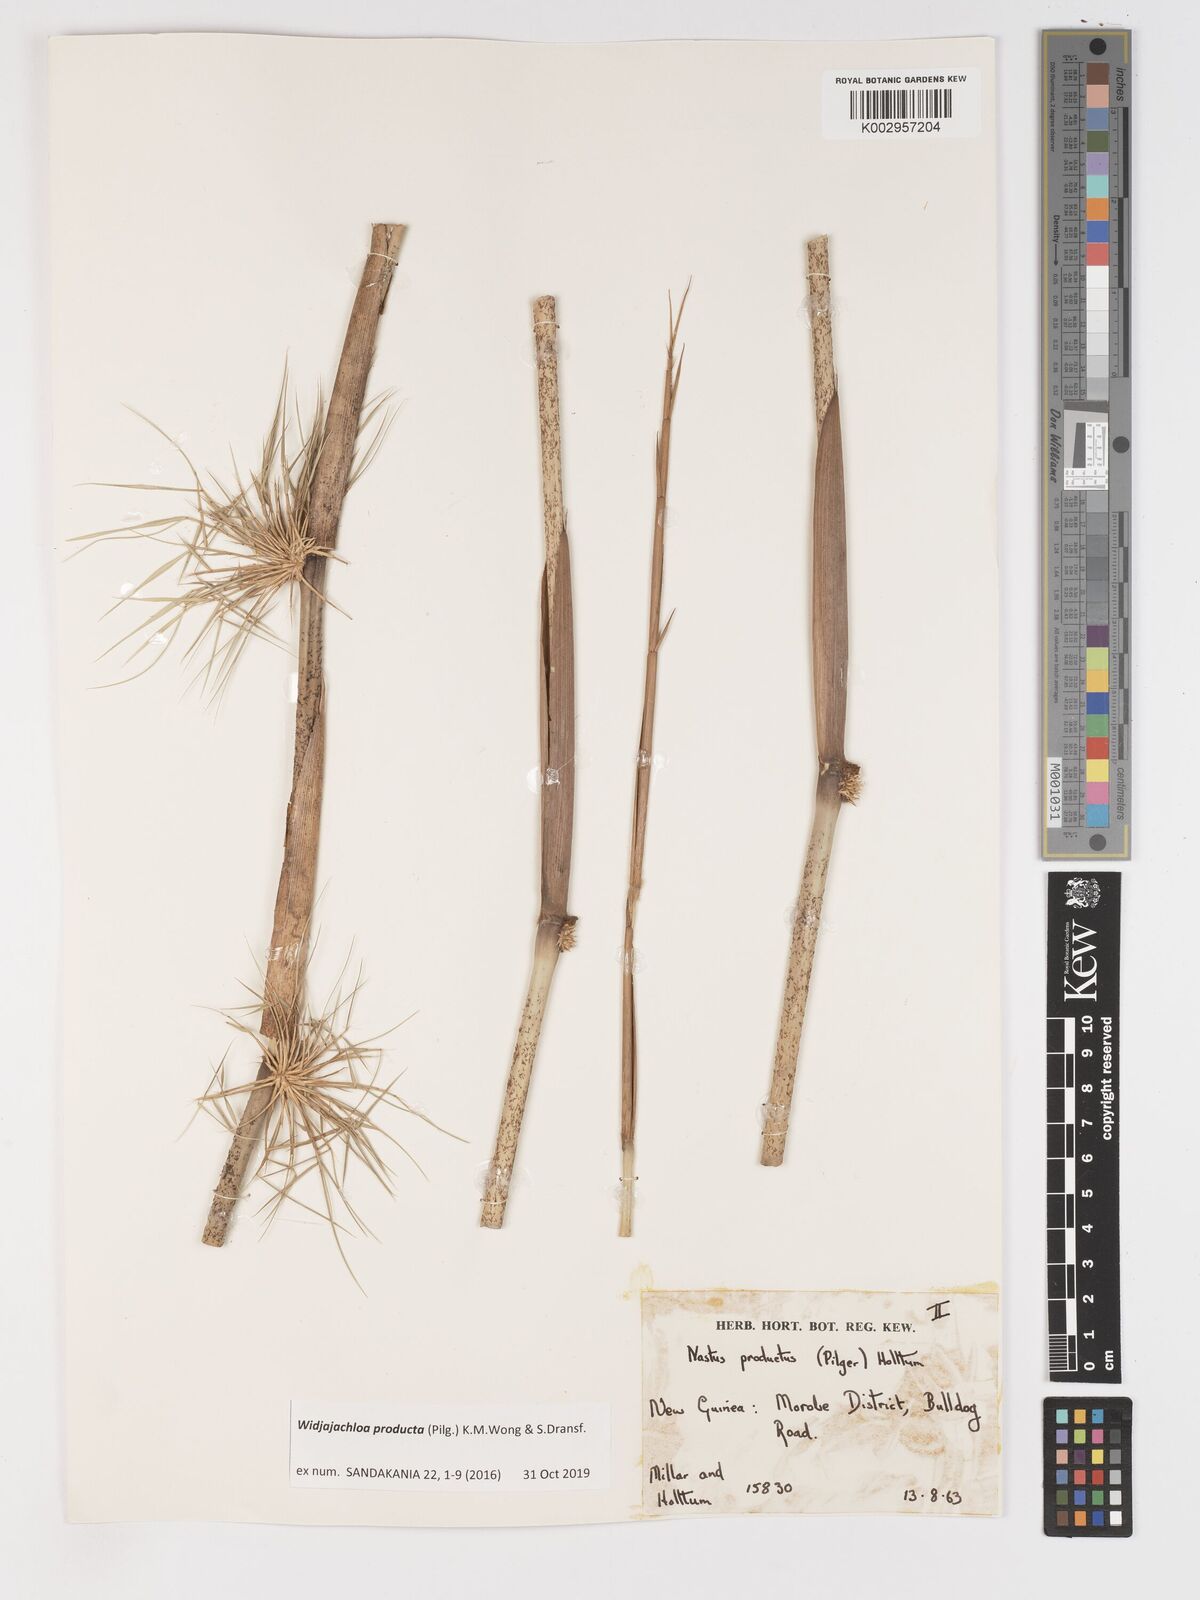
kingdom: Plantae
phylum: Tracheophyta
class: Liliopsida
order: Poales
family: Poaceae
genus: Widjajachloa
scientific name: Widjajachloa
